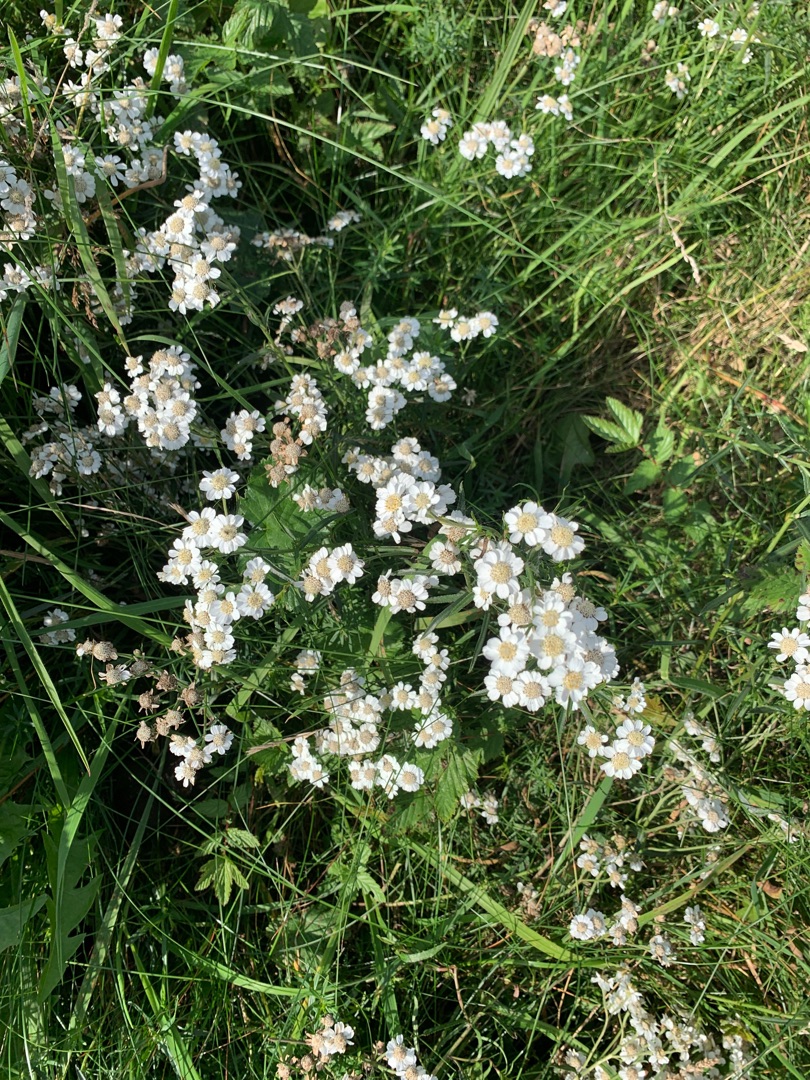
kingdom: Plantae
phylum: Tracheophyta
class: Magnoliopsida
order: Asterales
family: Asteraceae
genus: Achillea
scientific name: Achillea ptarmica
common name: Nyse-røllike
